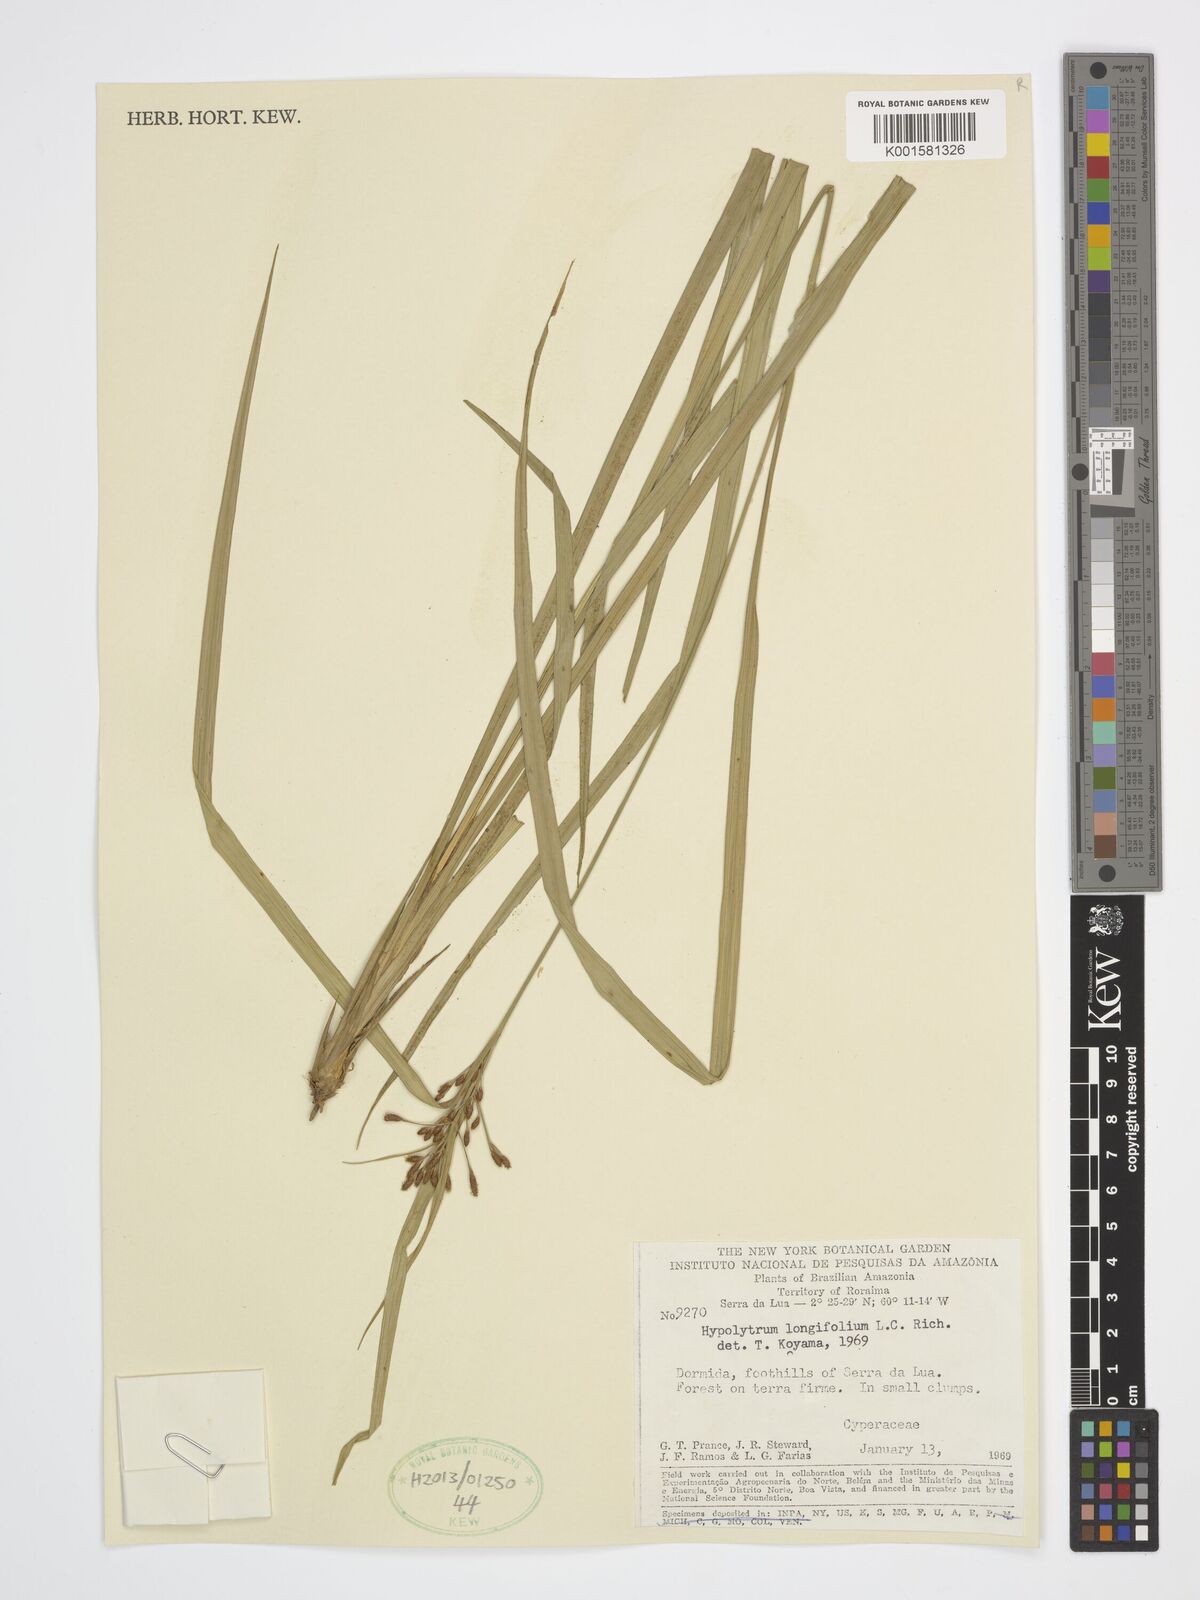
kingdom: Plantae
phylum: Tracheophyta
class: Liliopsida
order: Poales
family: Cyperaceae
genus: Hypolytrum
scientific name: Hypolytrum longifolium
